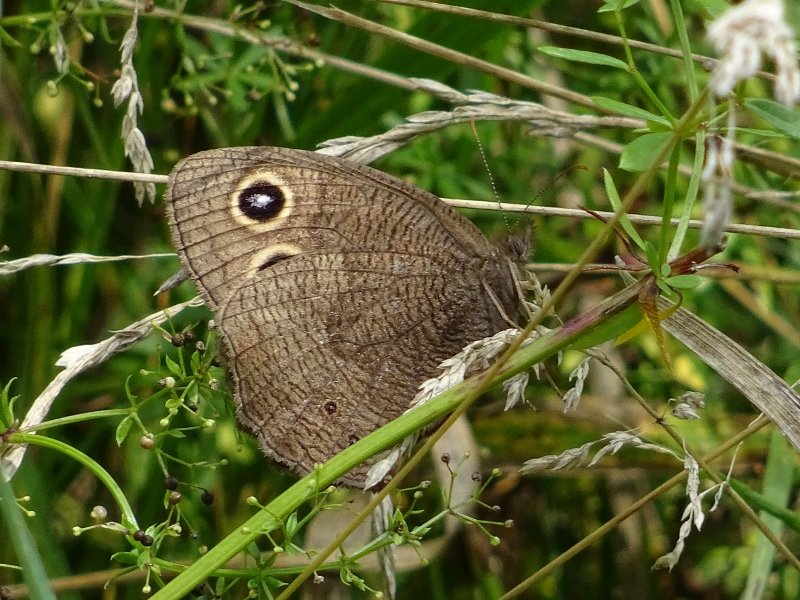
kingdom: Animalia
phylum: Arthropoda
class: Insecta
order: Lepidoptera
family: Nymphalidae
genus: Cercyonis
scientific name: Cercyonis pegala
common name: Common Wood-Nymph
